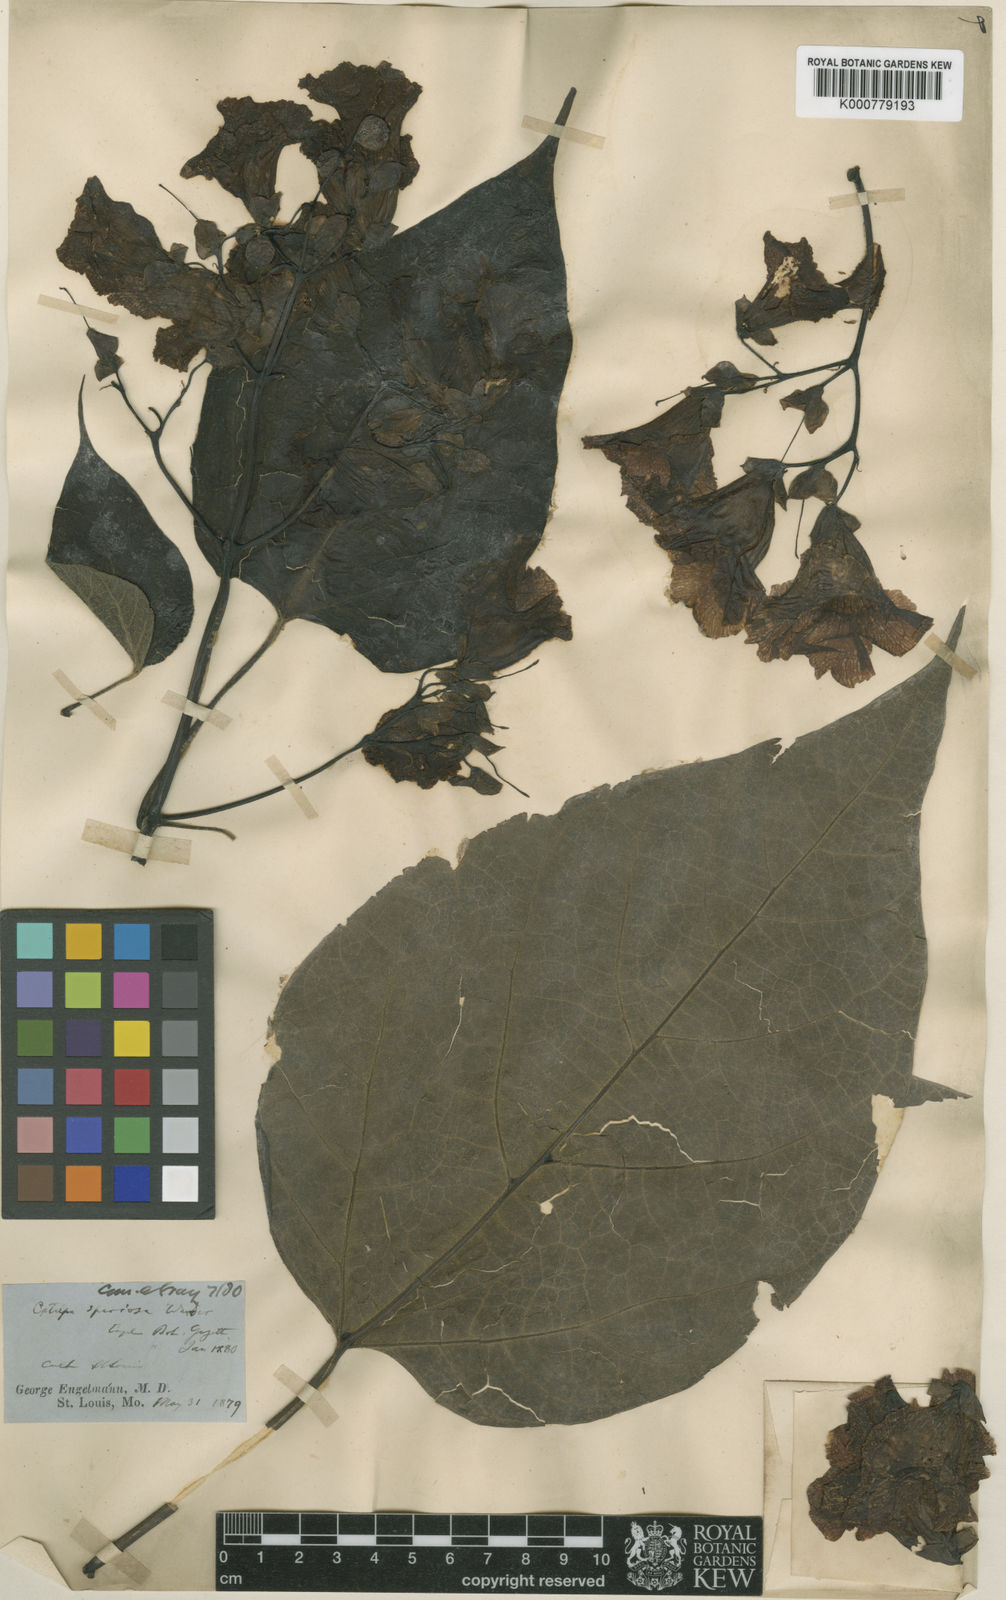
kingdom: Plantae
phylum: Tracheophyta
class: Magnoliopsida
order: Lamiales
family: Bignoniaceae
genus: Catalpa
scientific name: Catalpa
